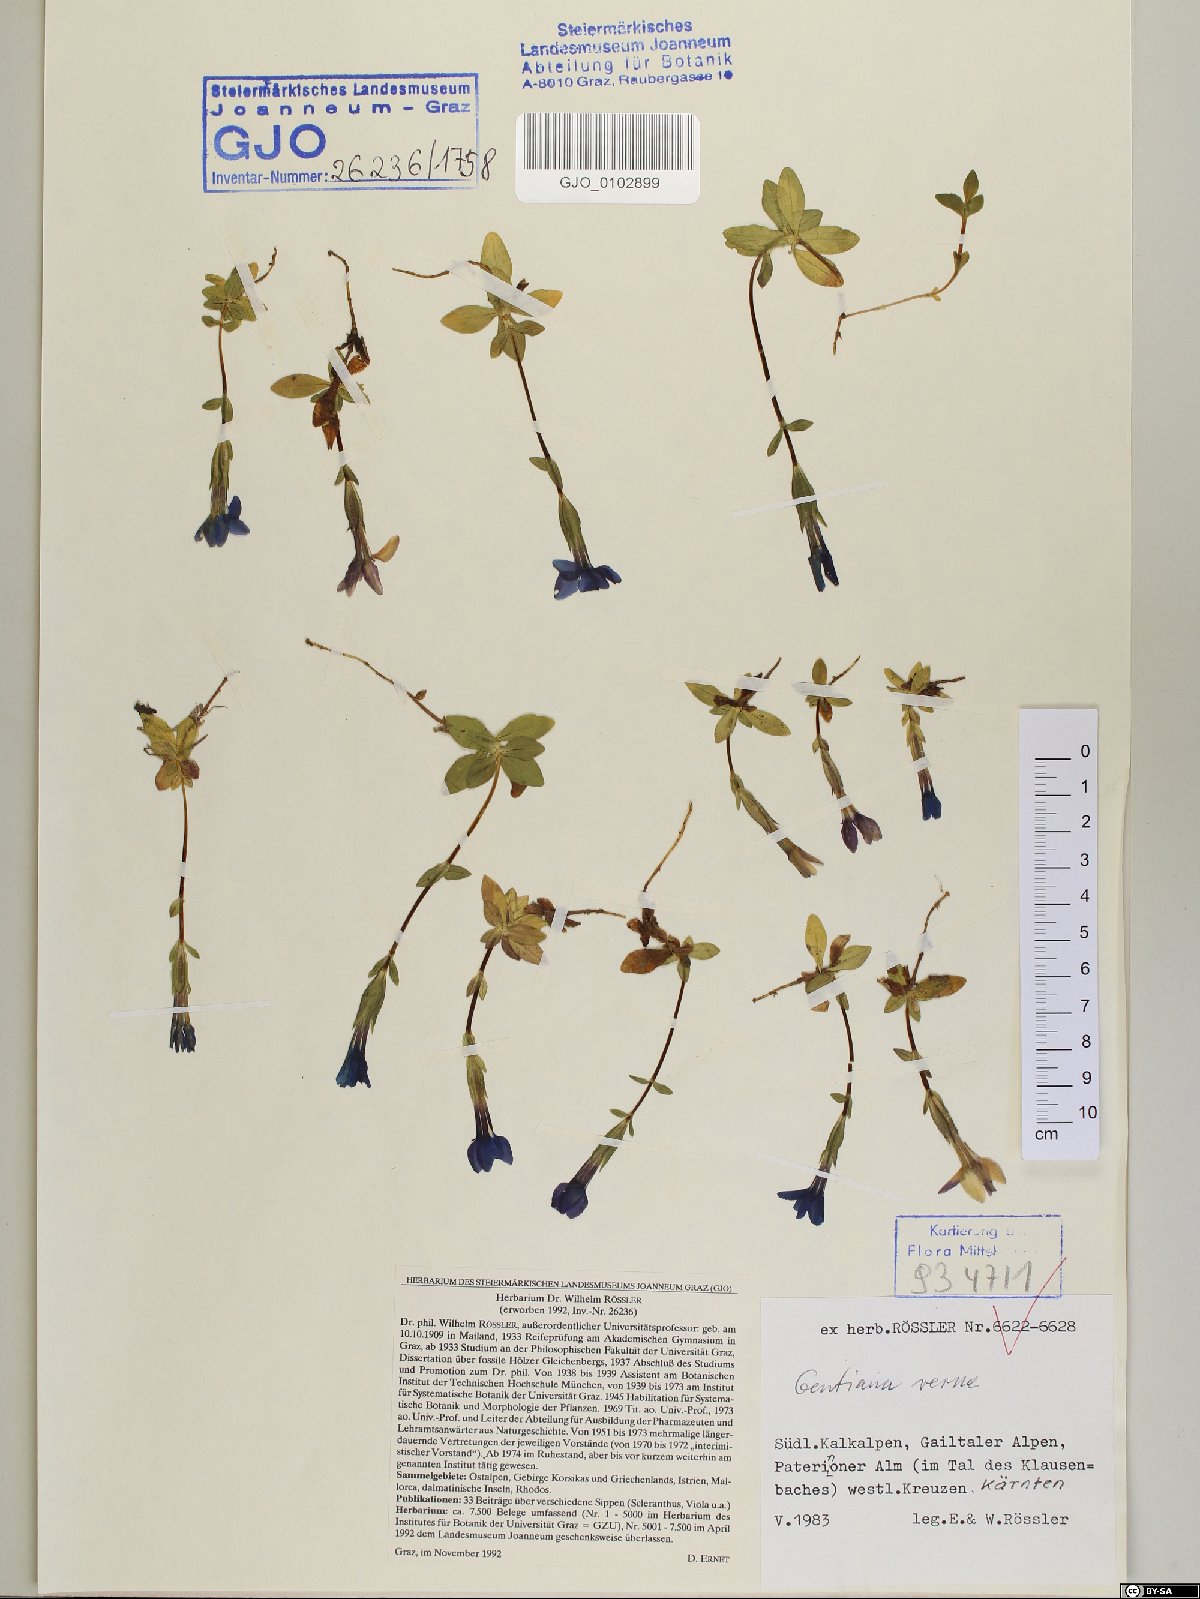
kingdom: Plantae
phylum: Tracheophyta
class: Magnoliopsida
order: Gentianales
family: Gentianaceae
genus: Gentiana
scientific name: Gentiana verna
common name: Spring gentian
